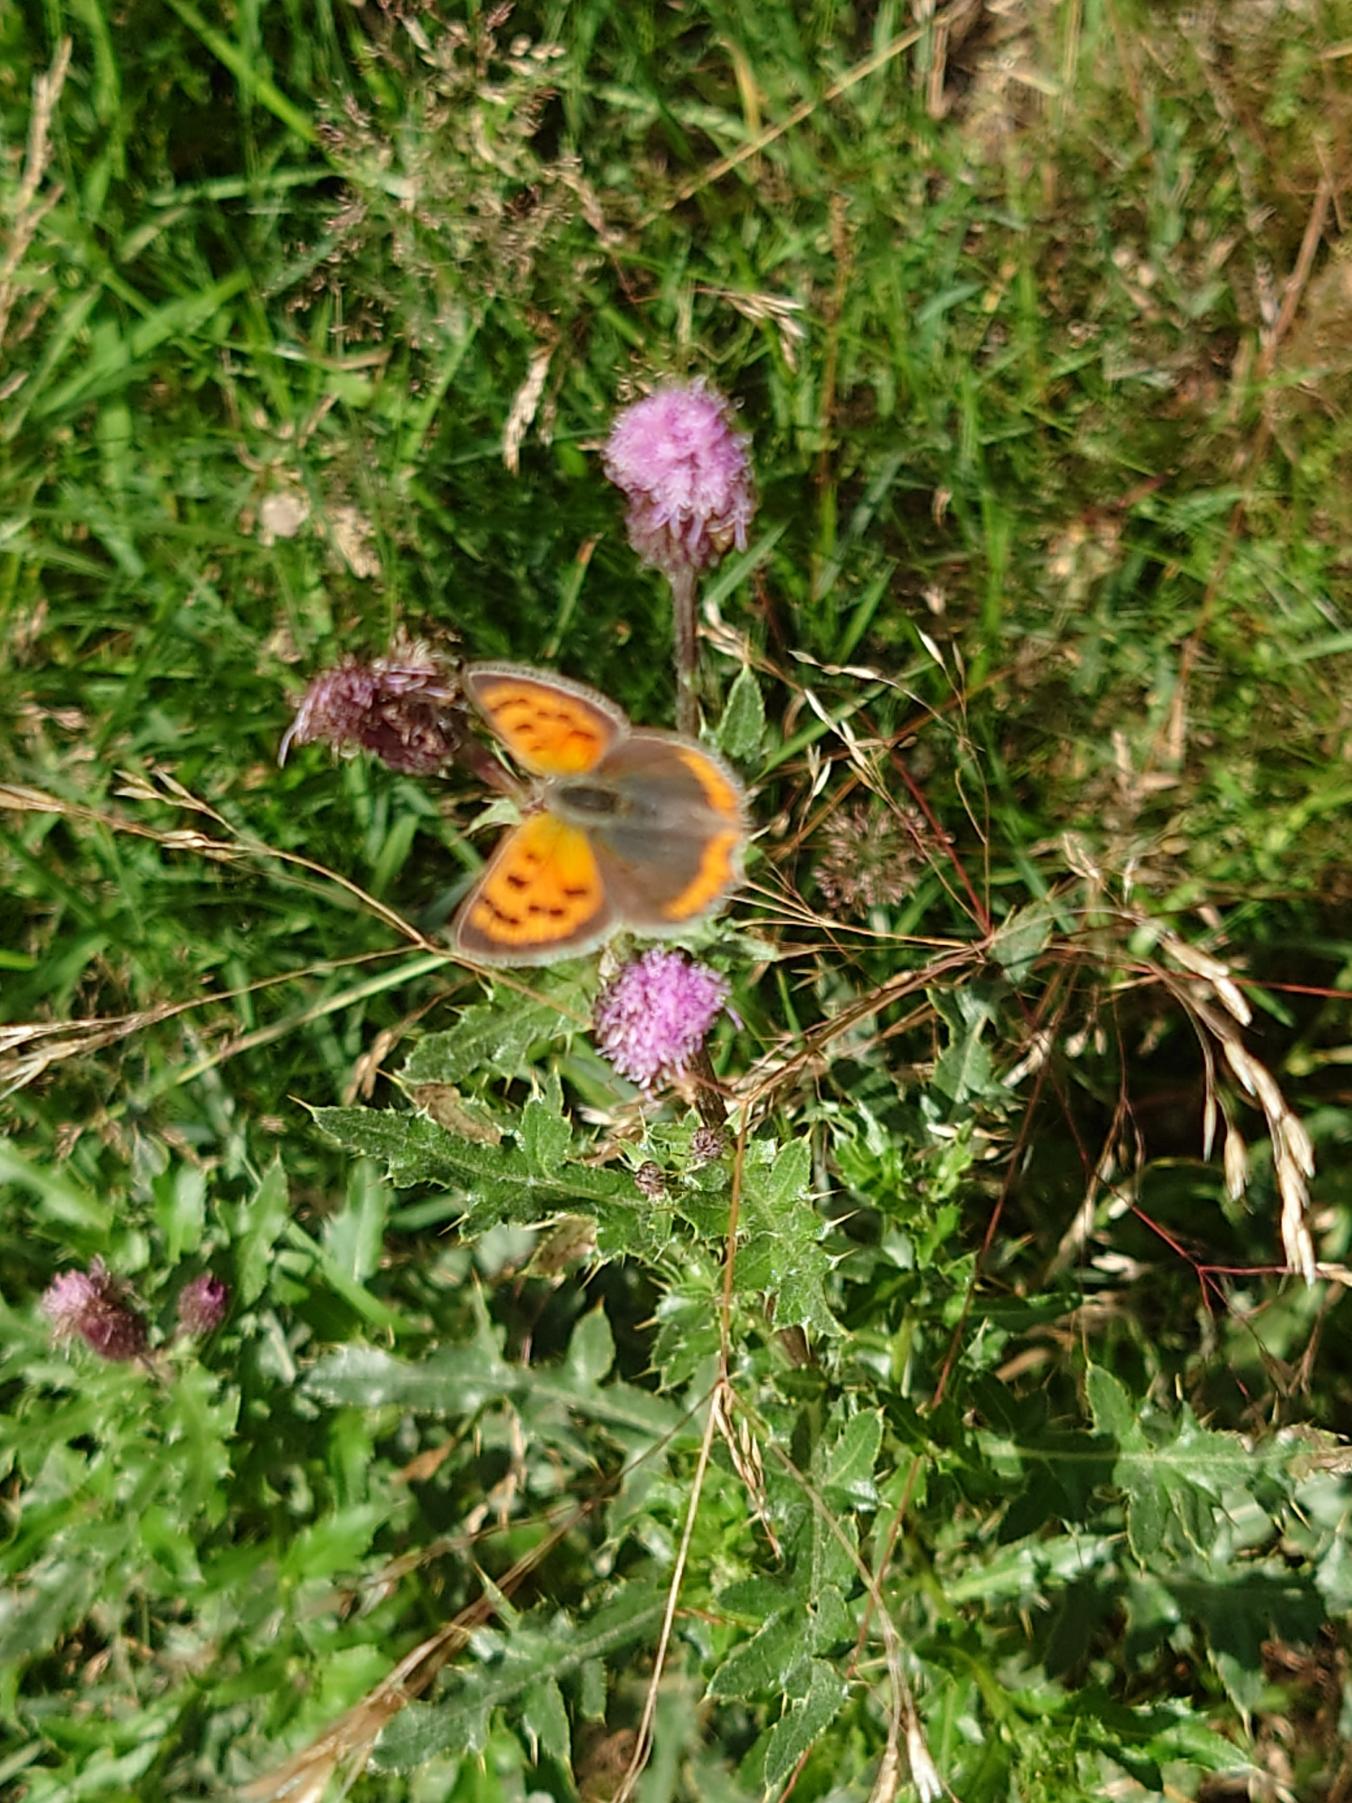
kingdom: Animalia
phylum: Arthropoda
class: Insecta
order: Lepidoptera
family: Lycaenidae
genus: Lycaena
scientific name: Lycaena phlaeas
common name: Lille ildfugl
